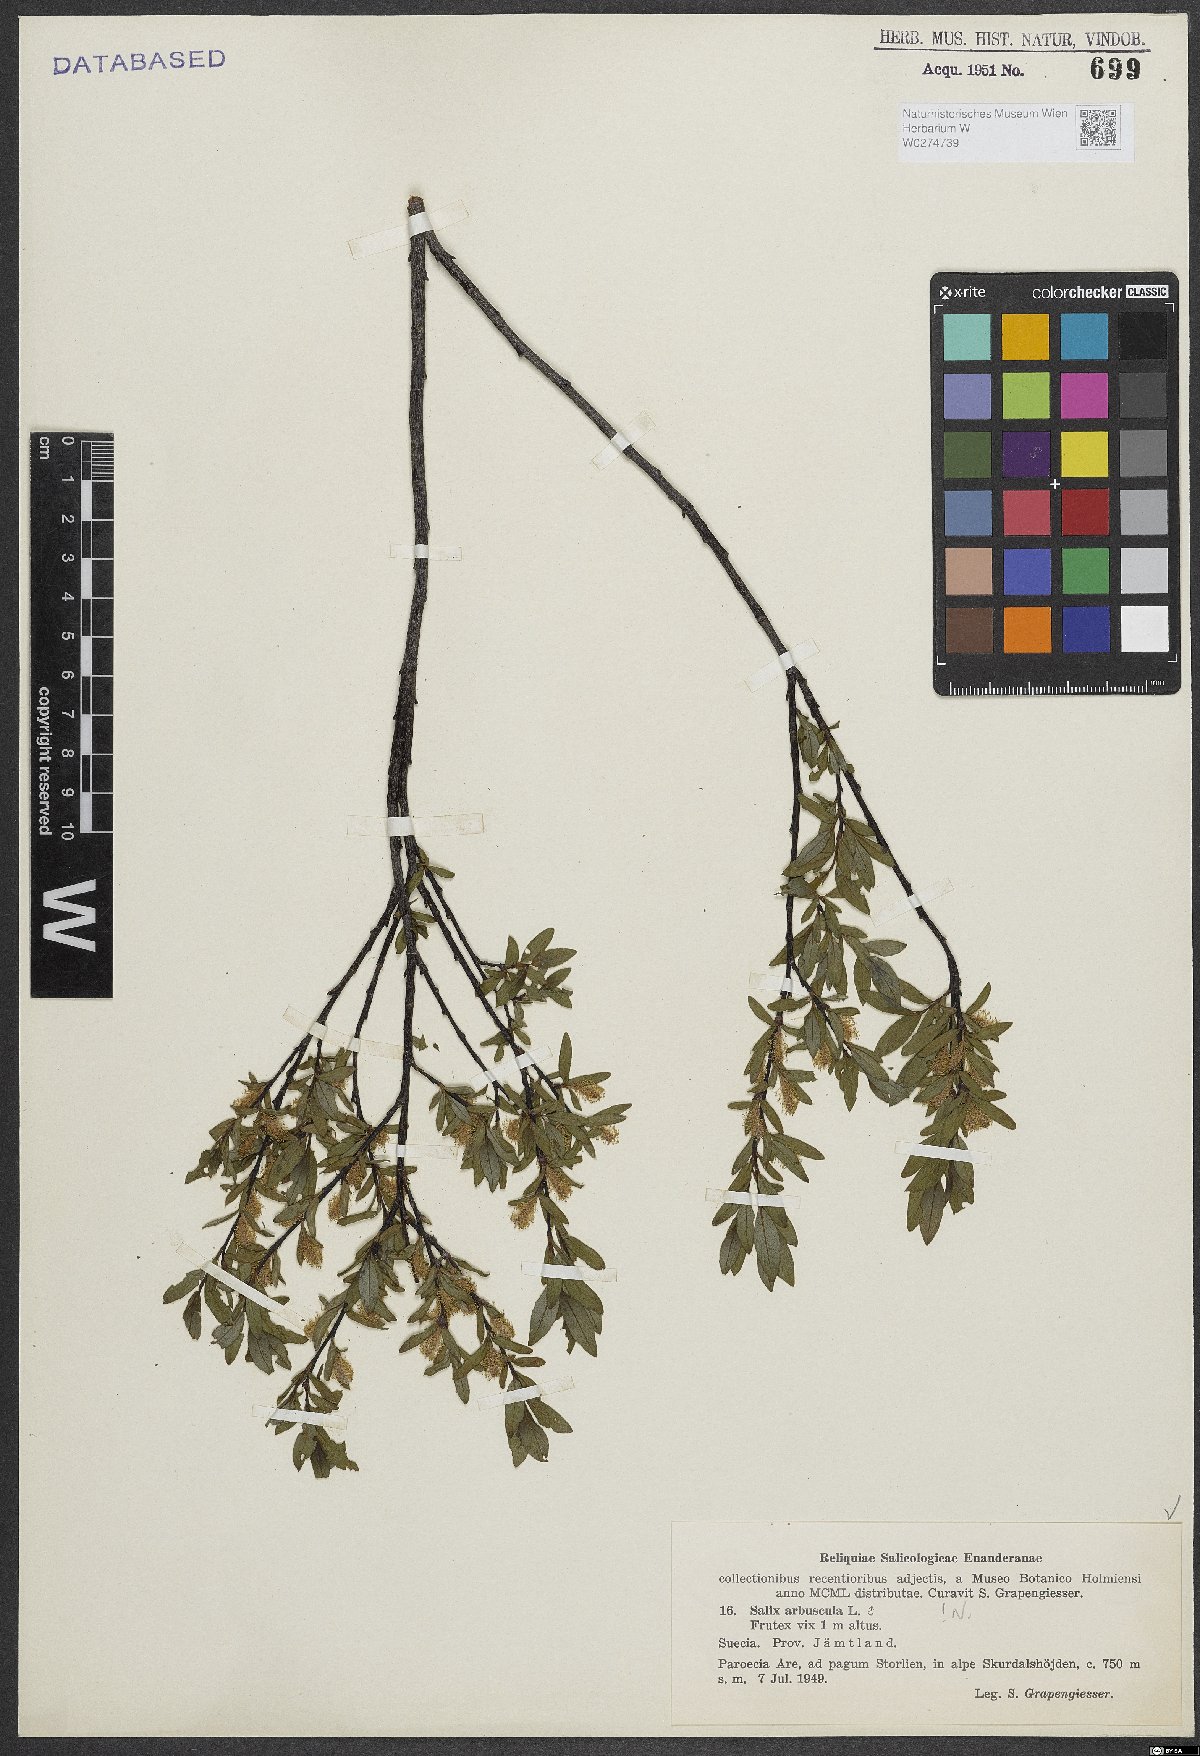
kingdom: Plantae
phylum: Tracheophyta
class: Magnoliopsida
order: Malpighiales
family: Salicaceae
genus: Salix
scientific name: Salix arbuscula
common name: Mountain willow
